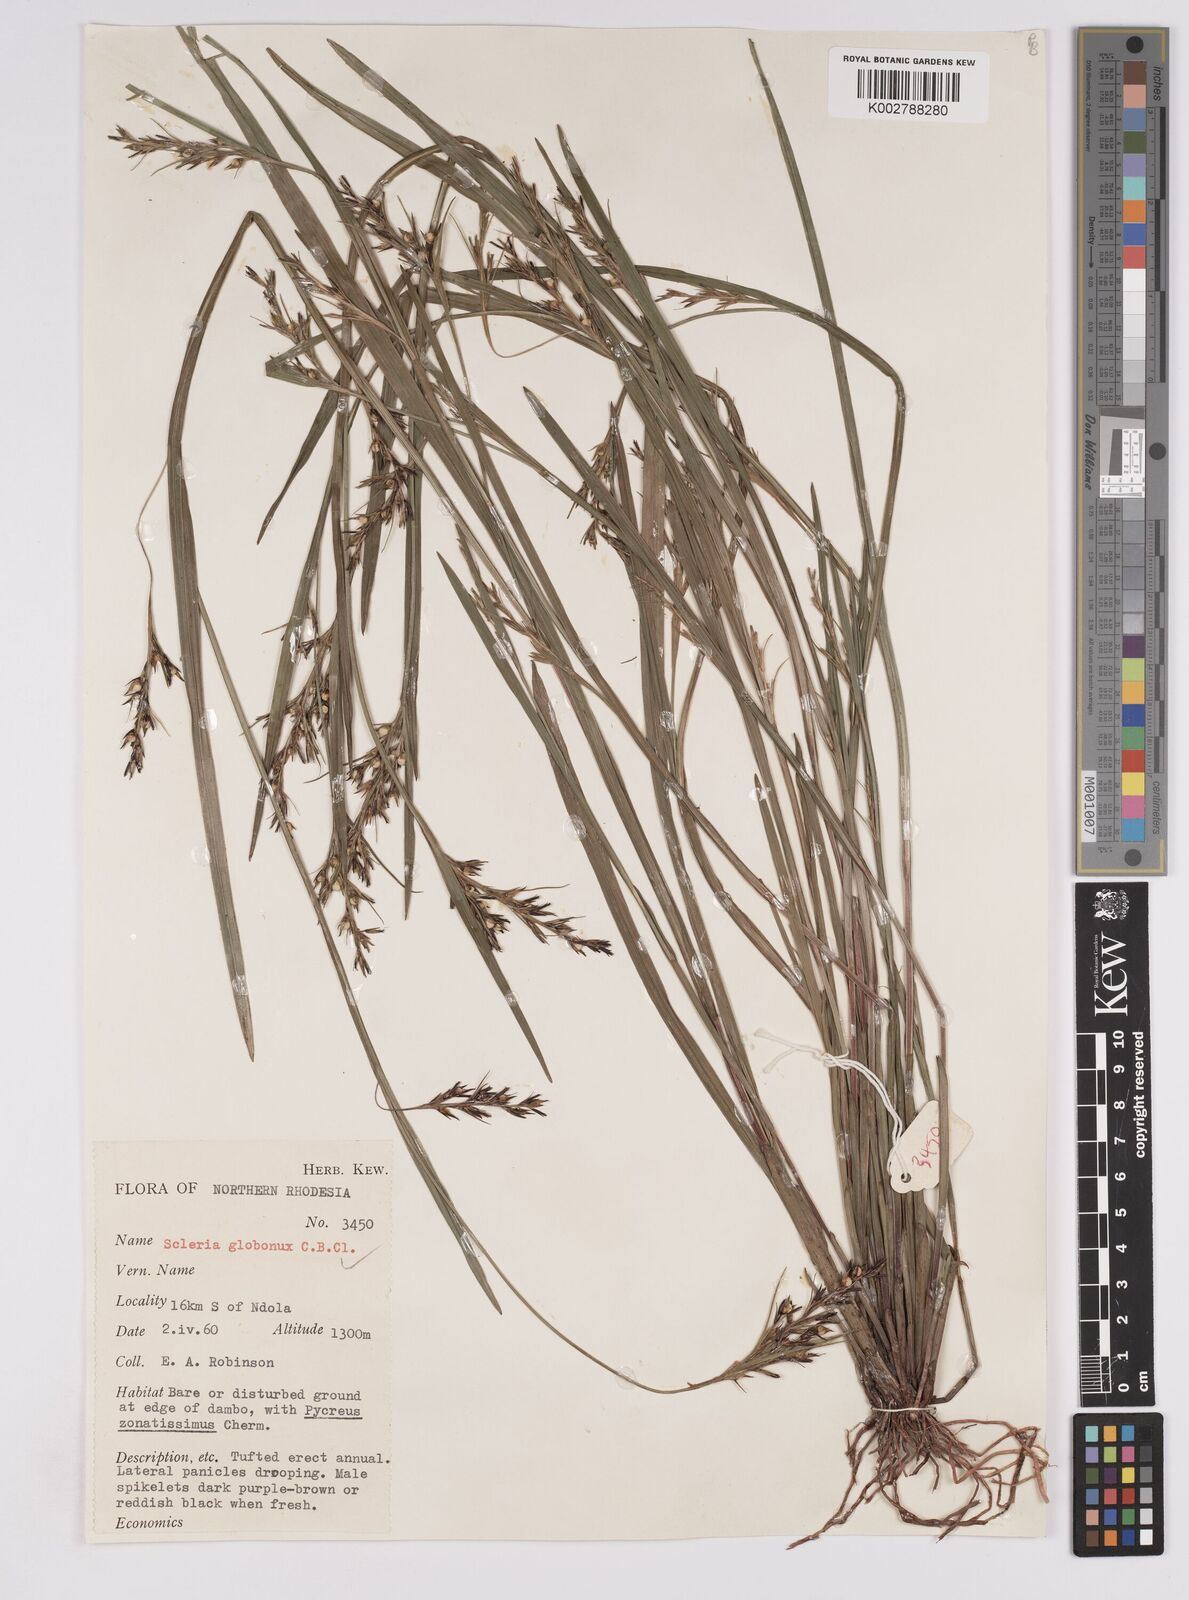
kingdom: Plantae
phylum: Tracheophyta
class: Liliopsida
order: Poales
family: Cyperaceae
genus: Scleria
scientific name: Scleria globonux
